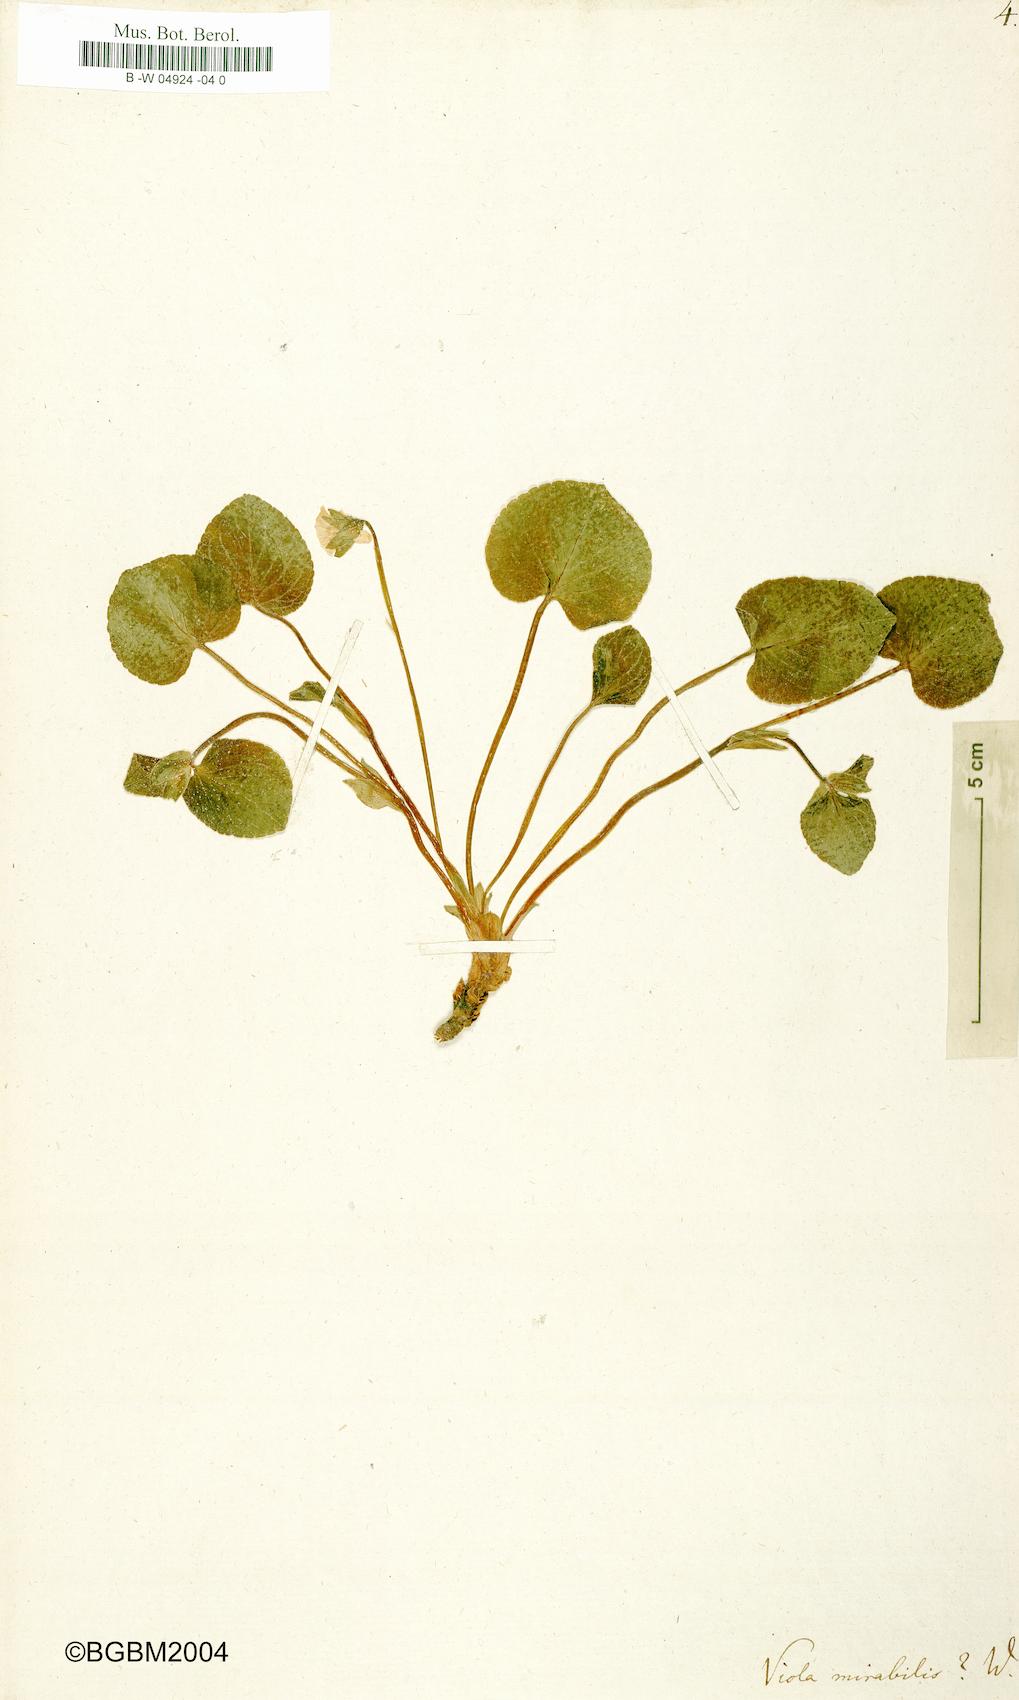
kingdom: Plantae
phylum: Tracheophyta
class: Magnoliopsida
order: Malpighiales
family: Violaceae
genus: Viola
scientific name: Viola mirabilis
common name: Wonder violet
